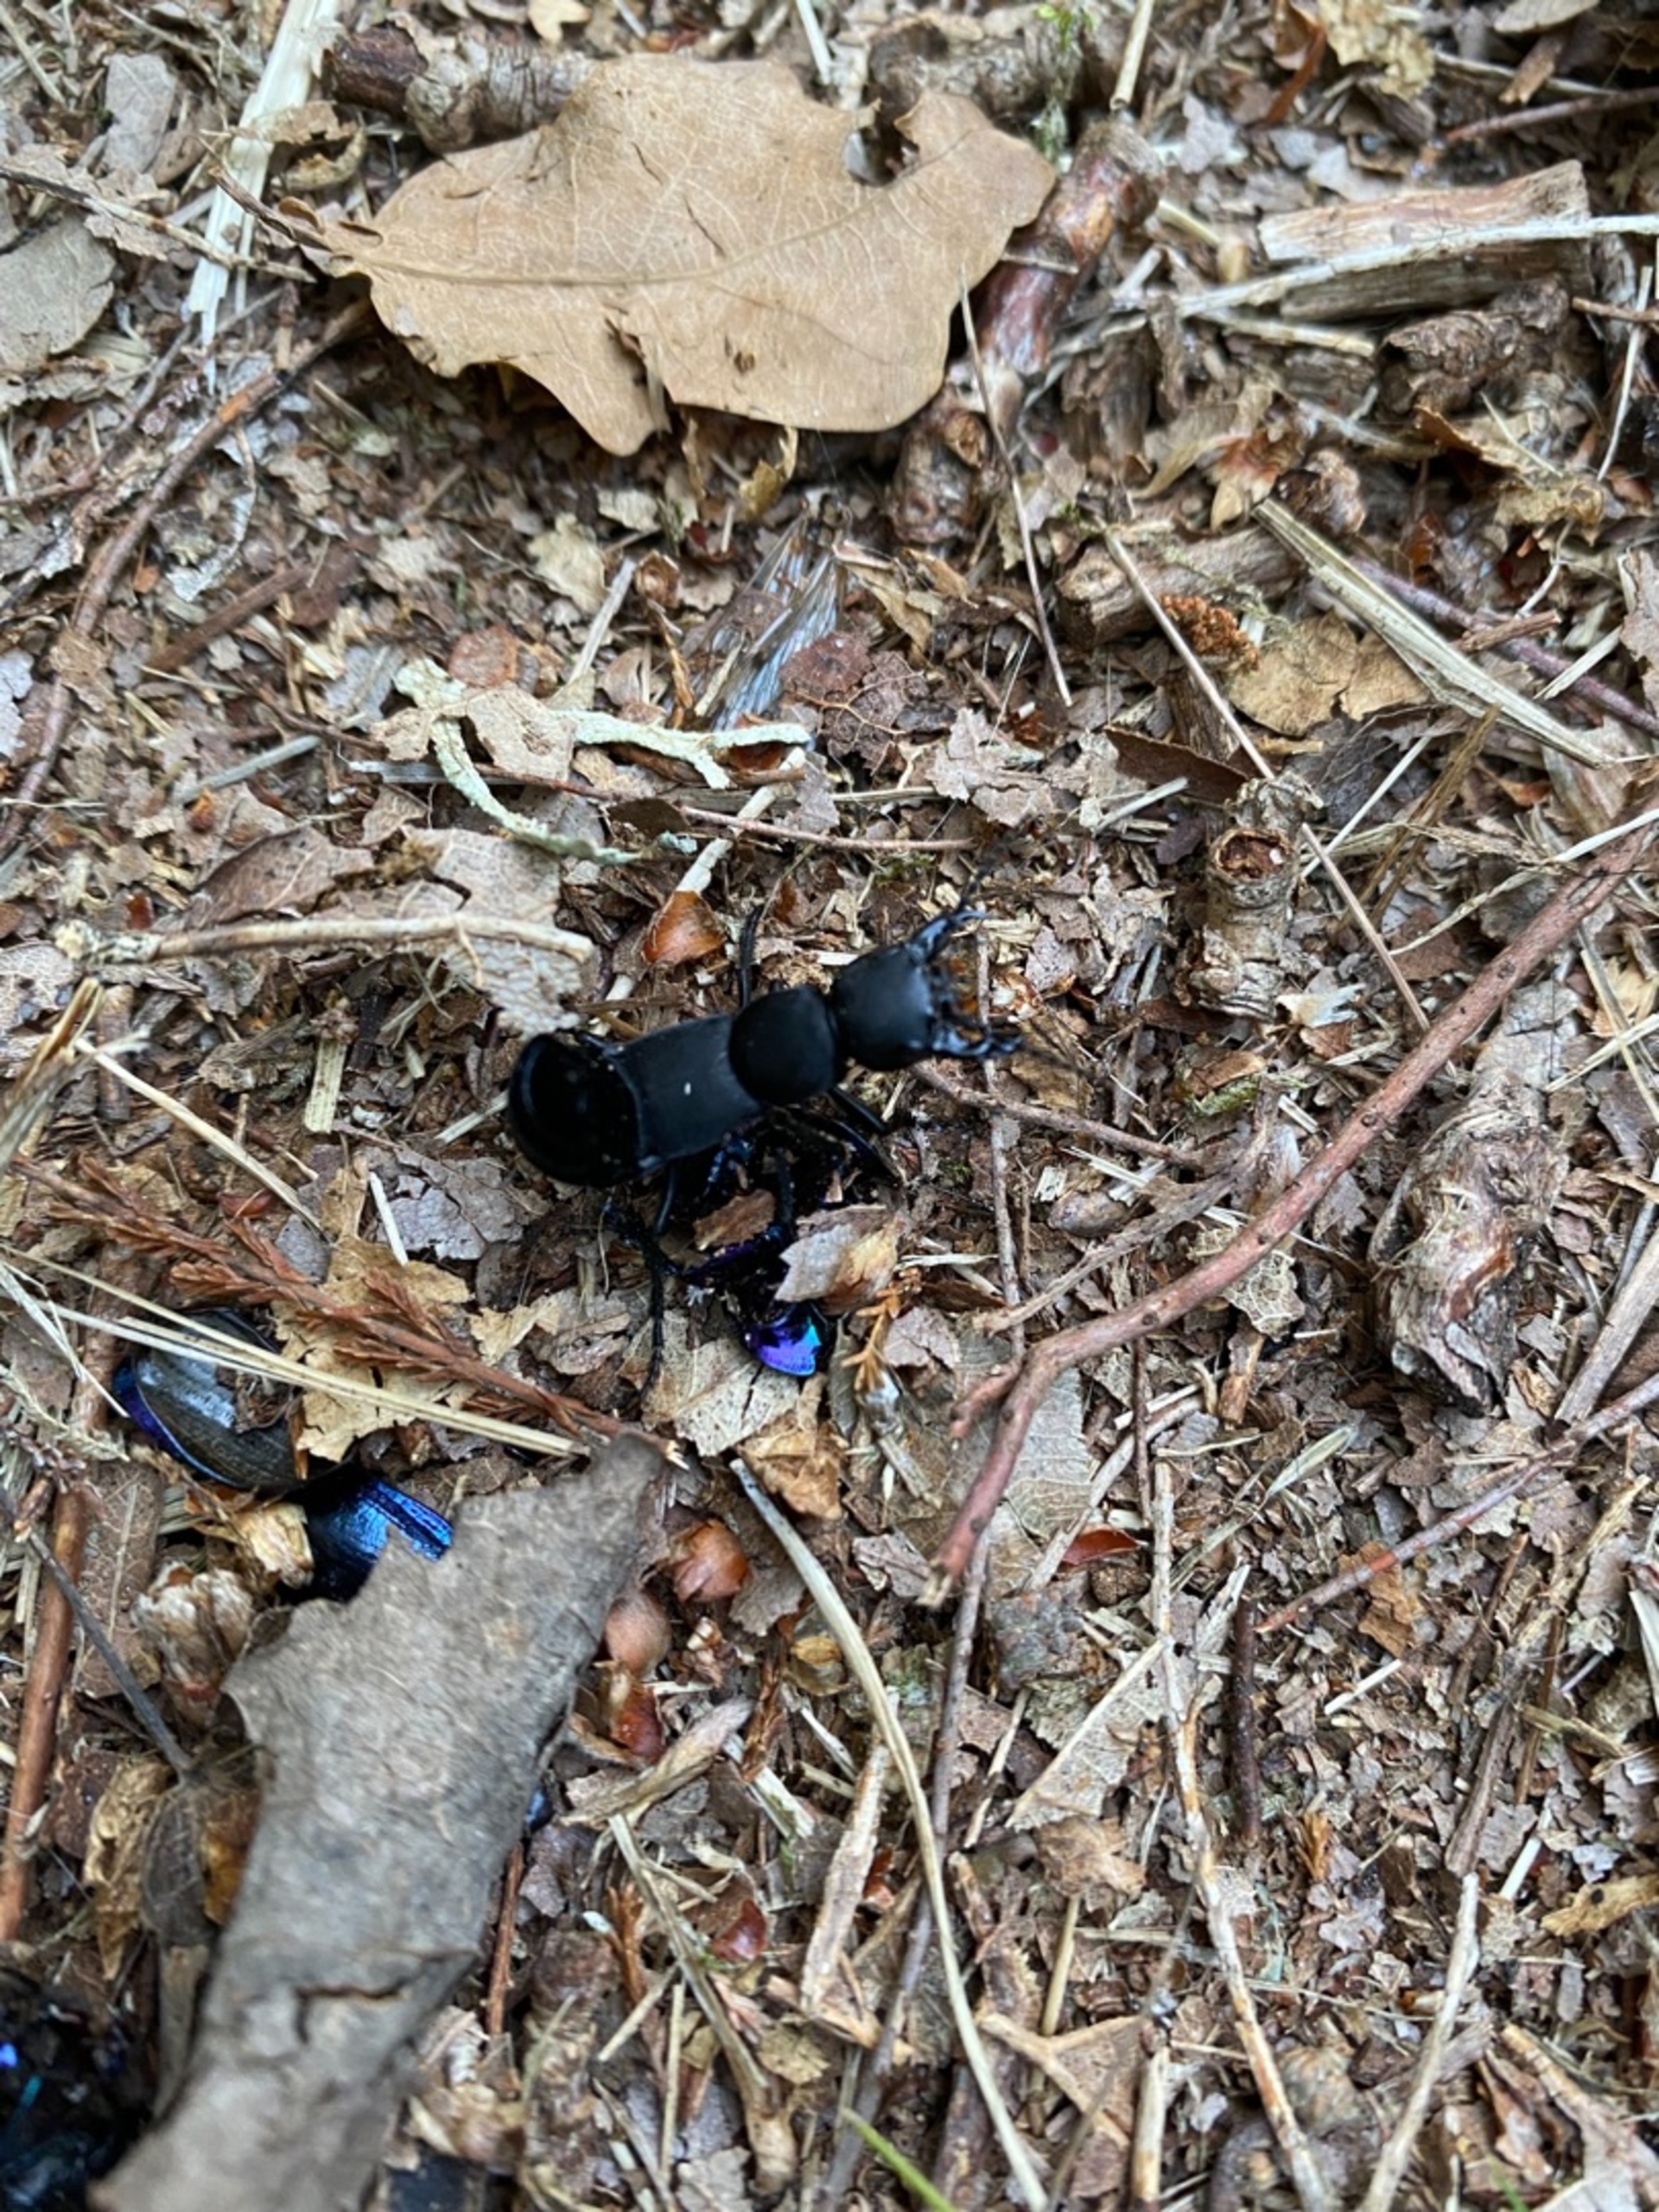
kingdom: Animalia
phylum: Arthropoda
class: Insecta
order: Coleoptera
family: Staphylinidae
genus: Ocypus
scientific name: Ocypus olens
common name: Stor rovbille
